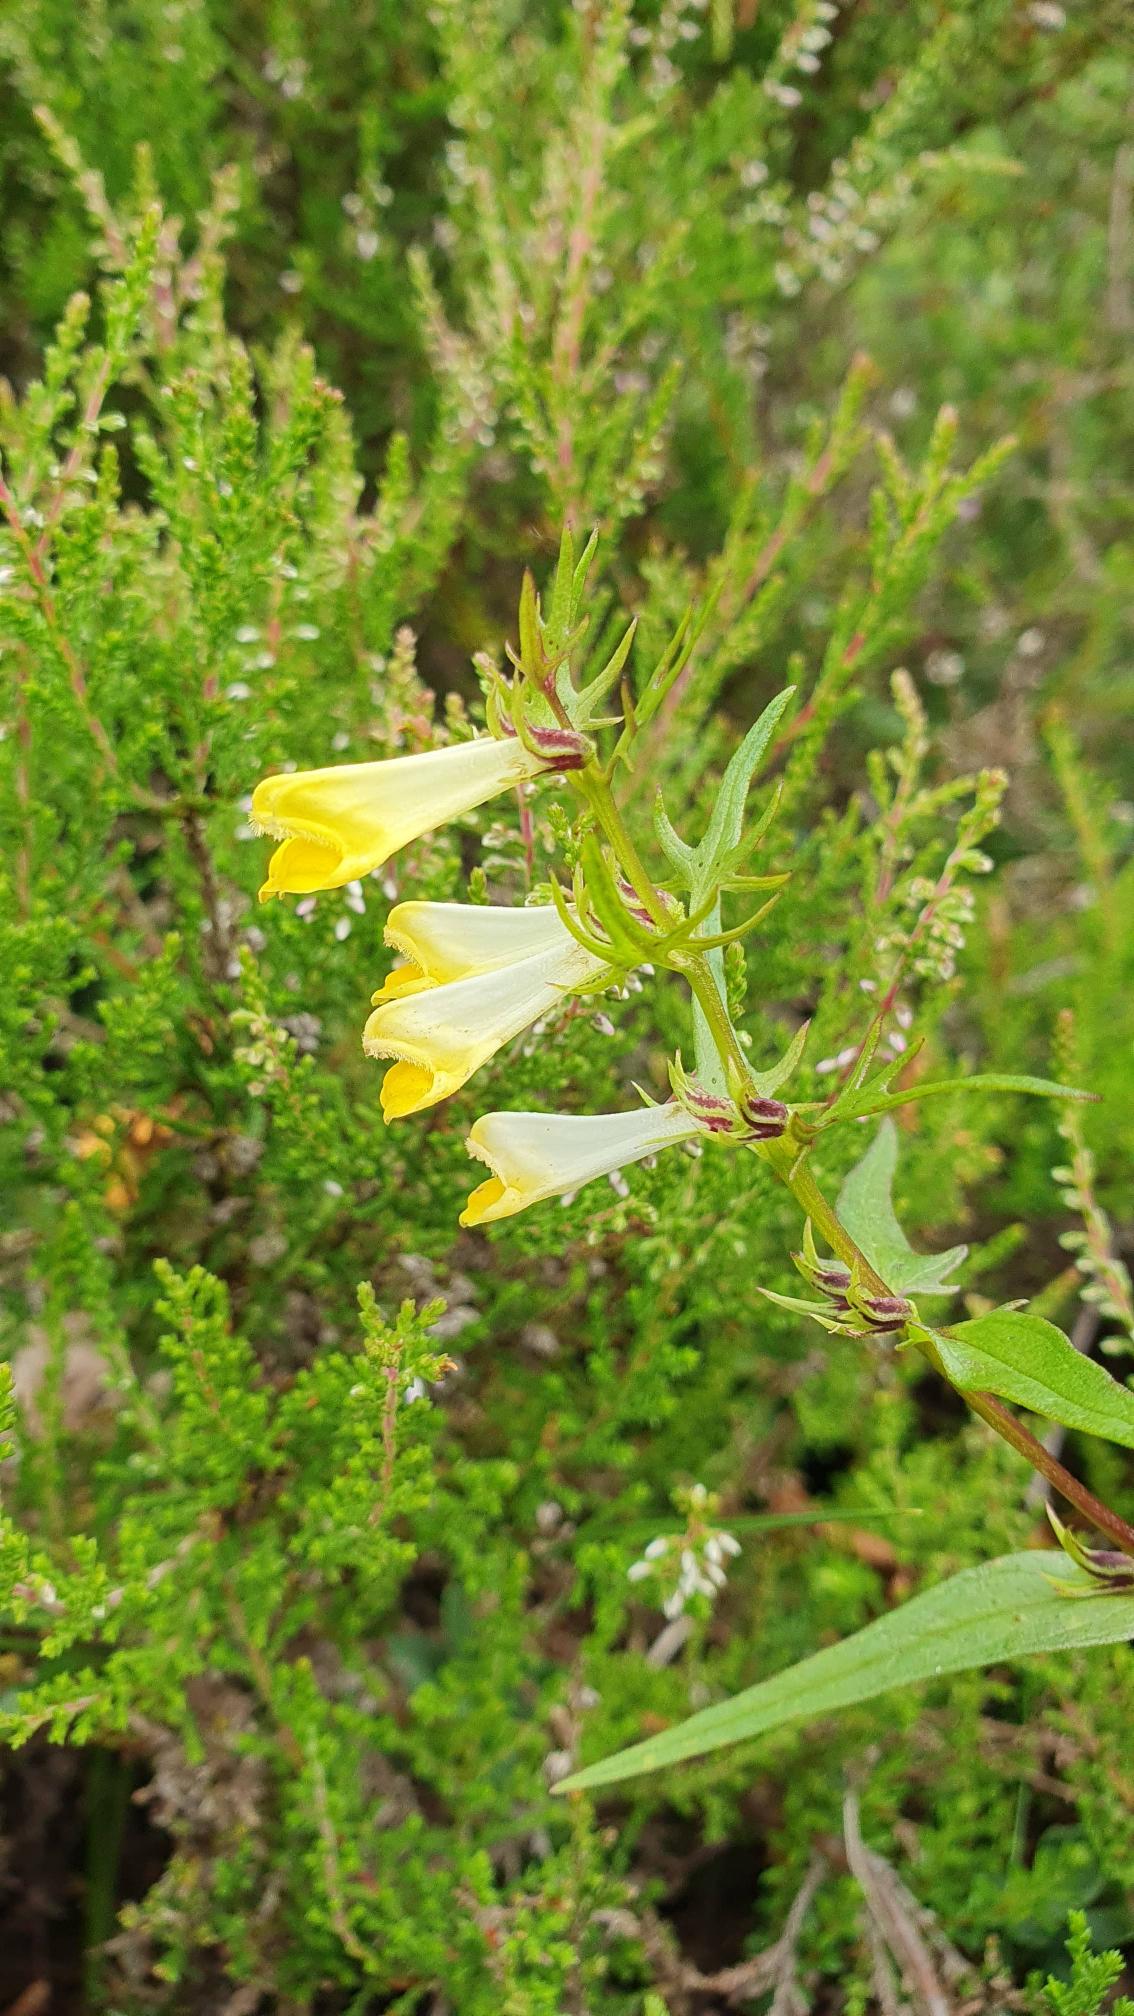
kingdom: Plantae
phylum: Tracheophyta
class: Magnoliopsida
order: Lamiales
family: Orobanchaceae
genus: Melampyrum
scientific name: Melampyrum pratense
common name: Almindelig kohvede
